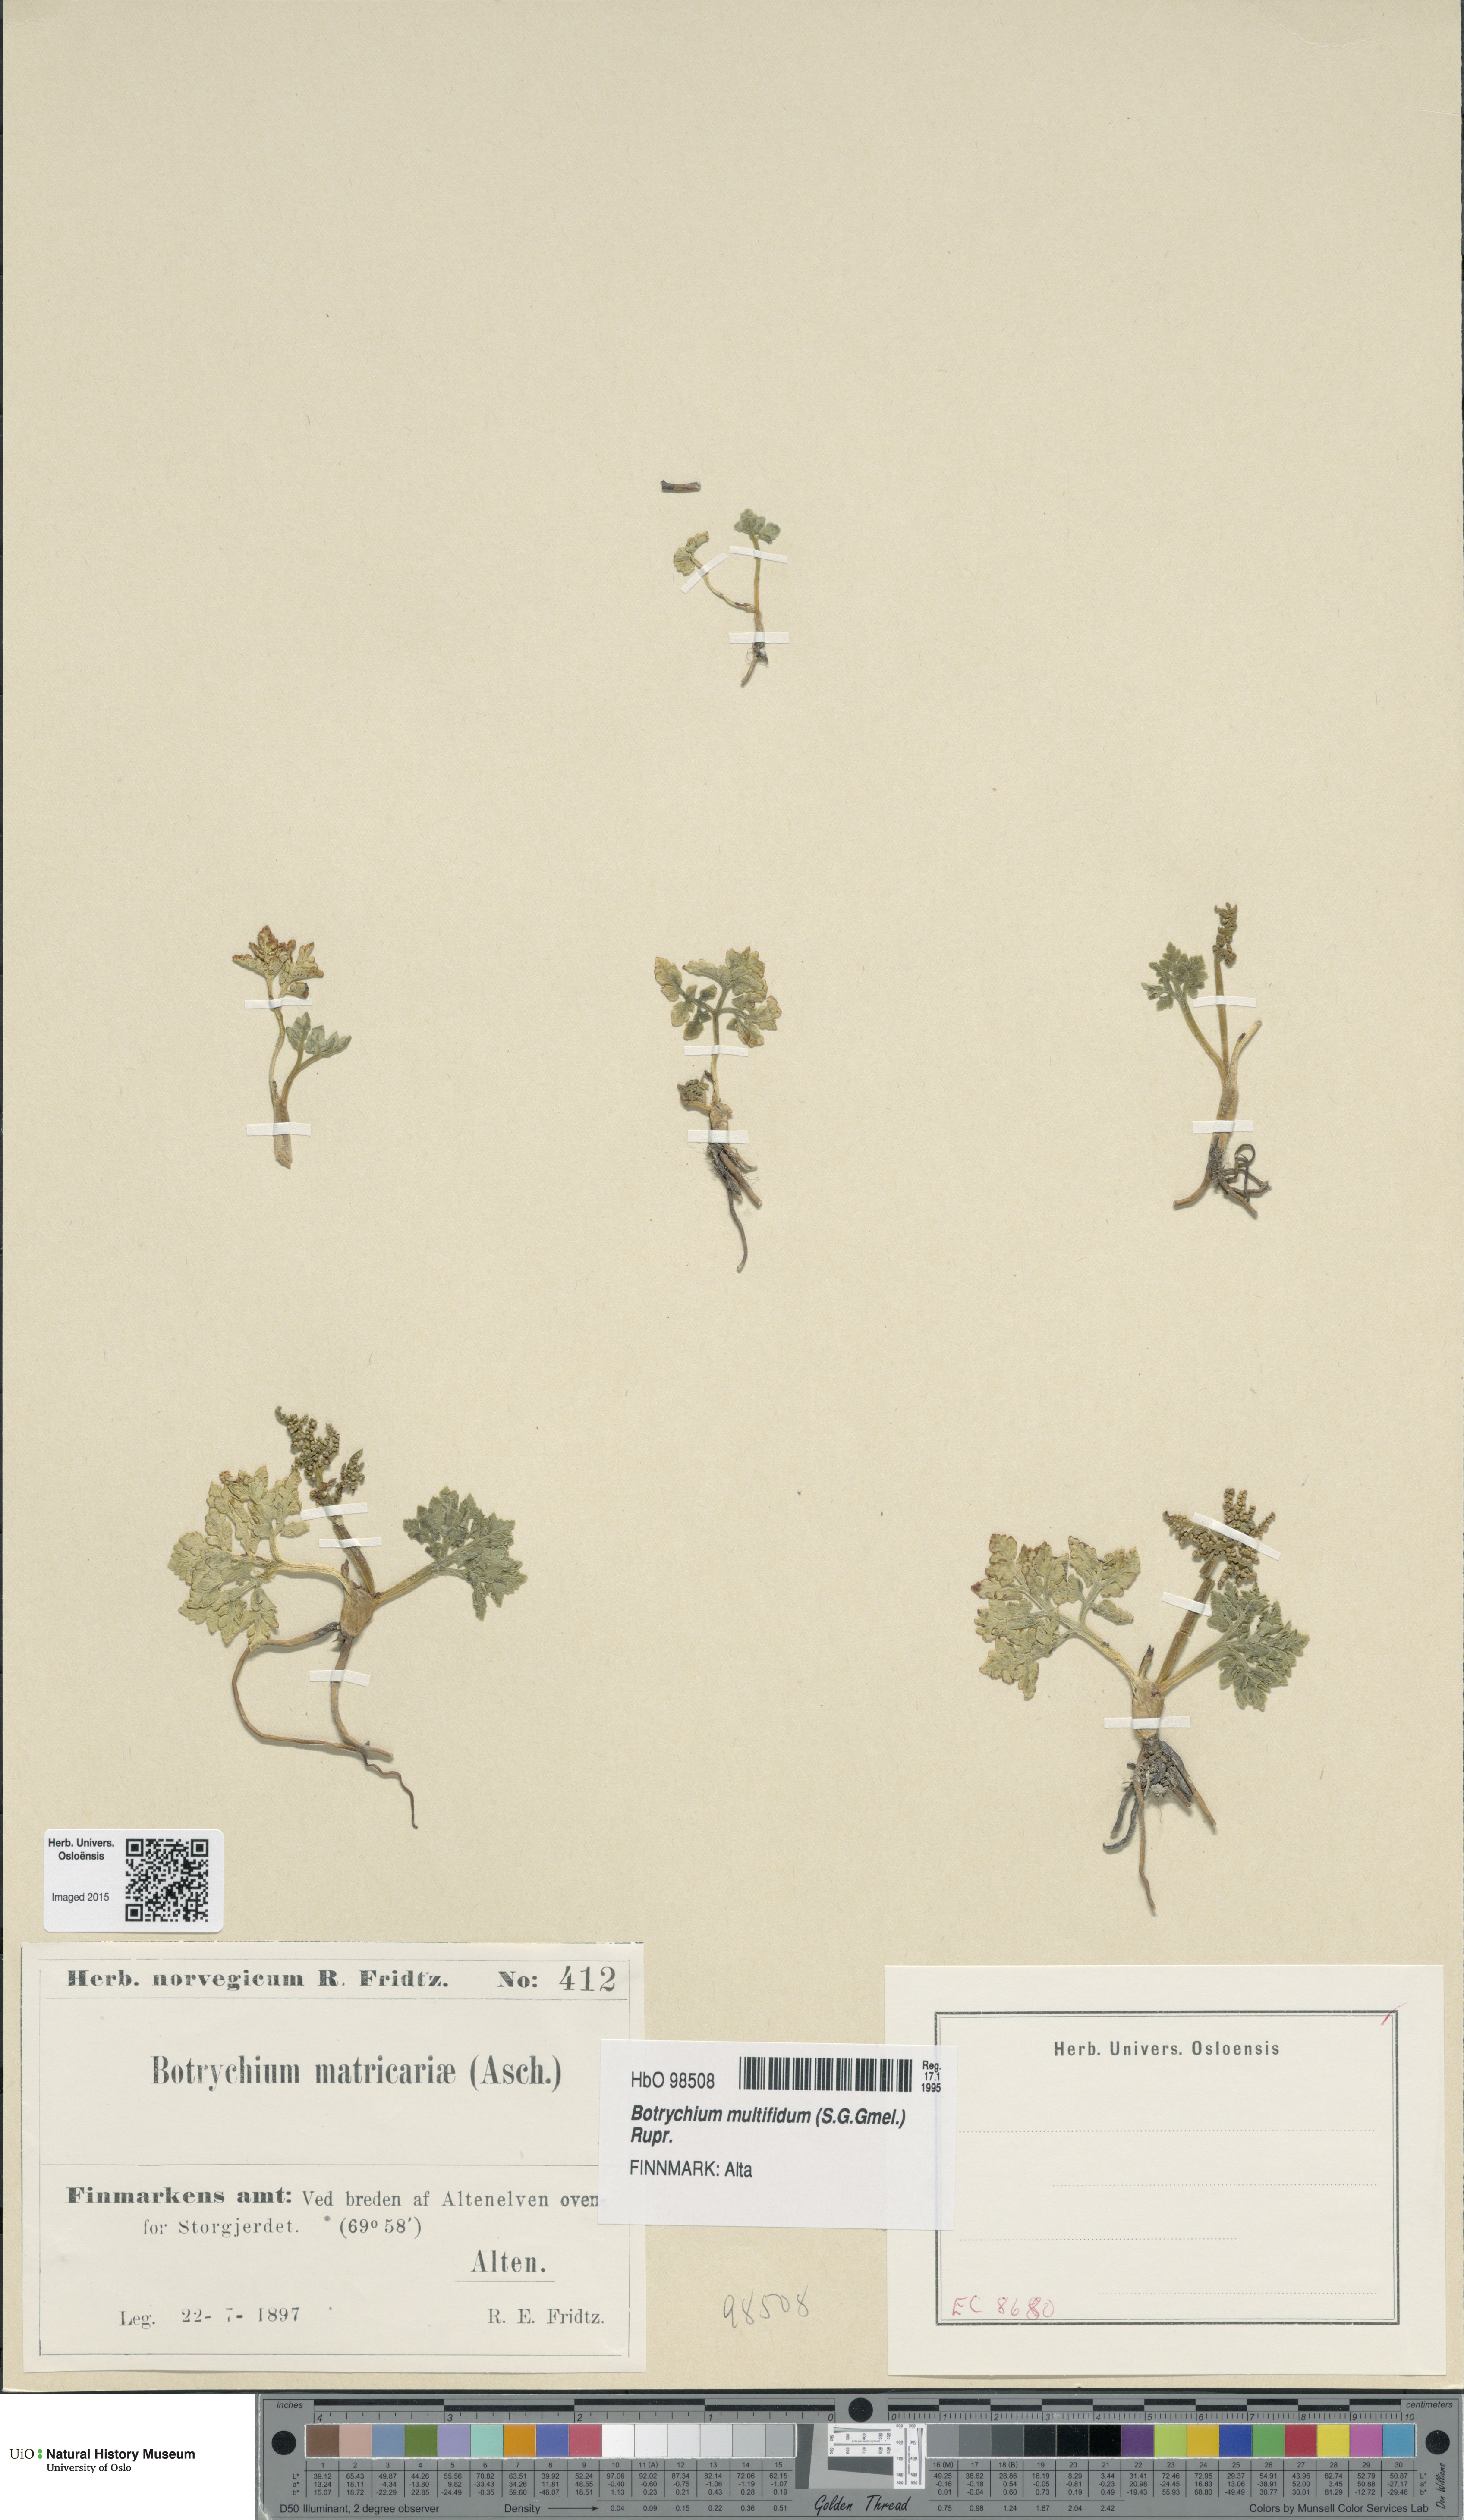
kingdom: Plantae
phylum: Tracheophyta
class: Polypodiopsida
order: Ophioglossales
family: Ophioglossaceae
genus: Sceptridium
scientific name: Sceptridium multifidum
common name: Leathery grape fern
